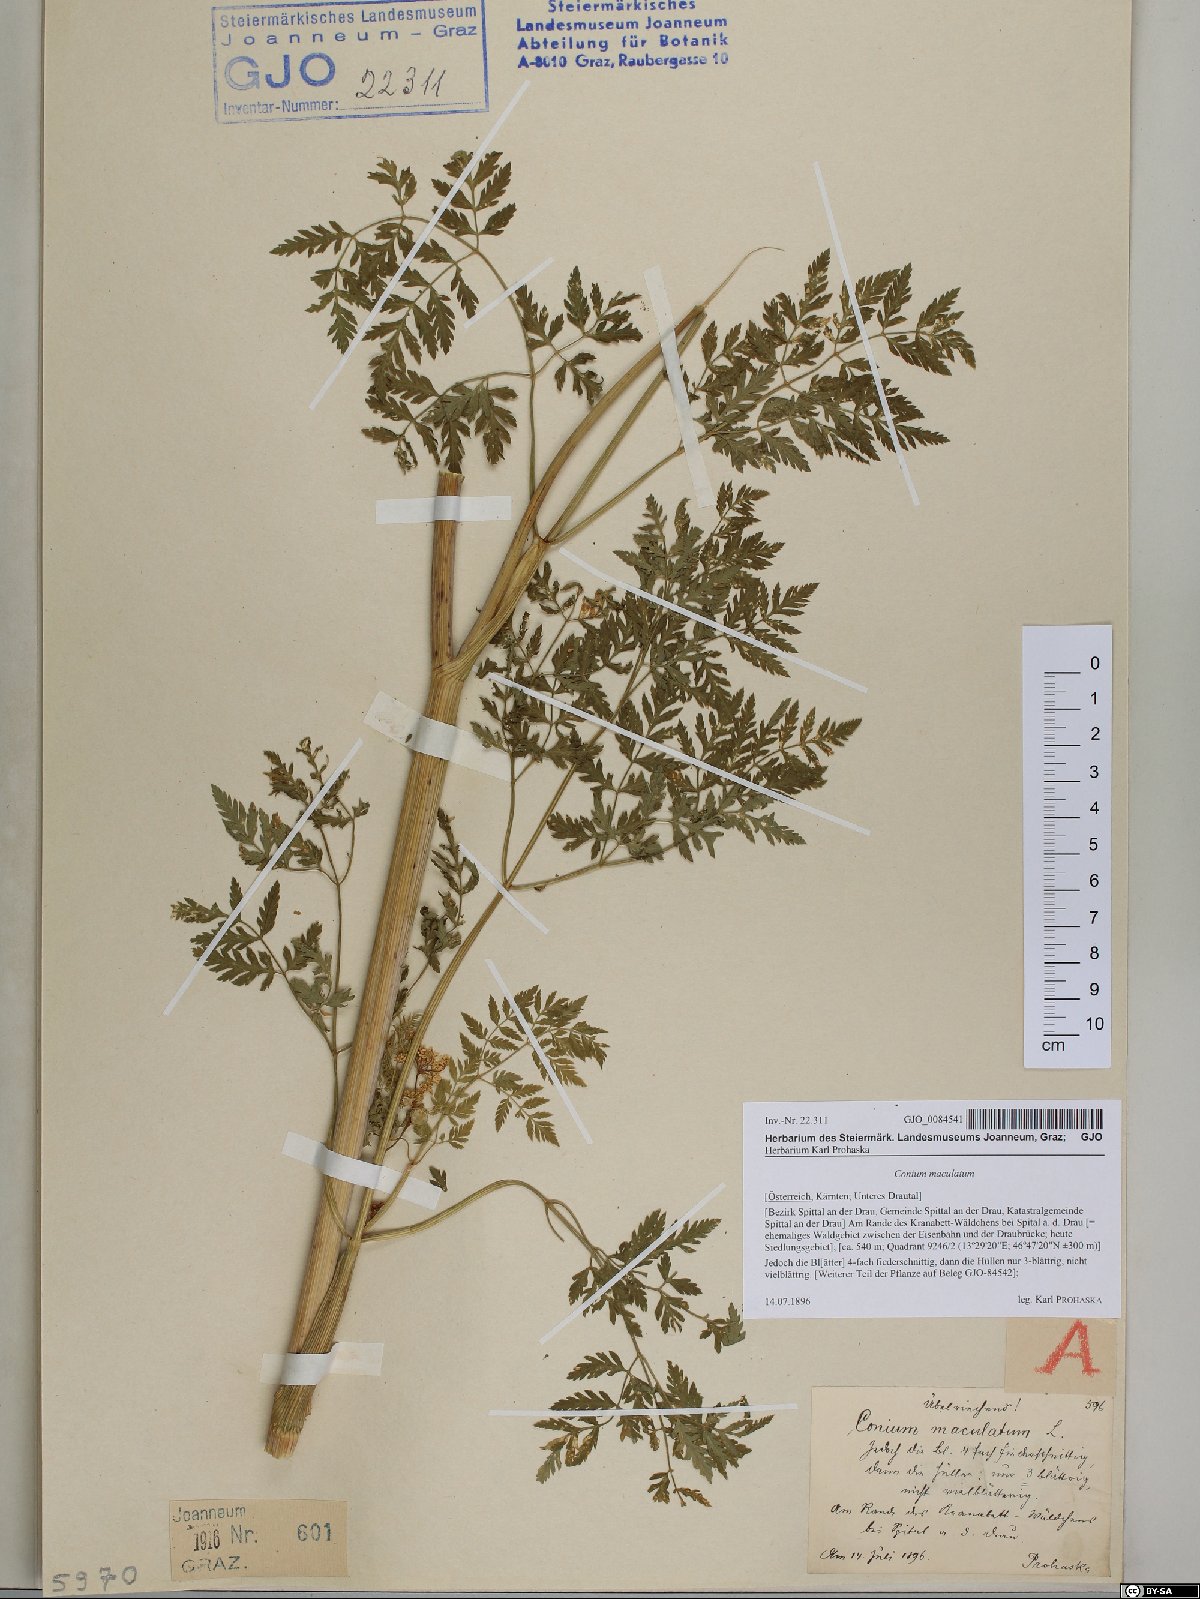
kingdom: Plantae
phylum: Tracheophyta
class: Magnoliopsida
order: Apiales
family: Apiaceae
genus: Conium
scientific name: Conium maculatum
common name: Hemlock
